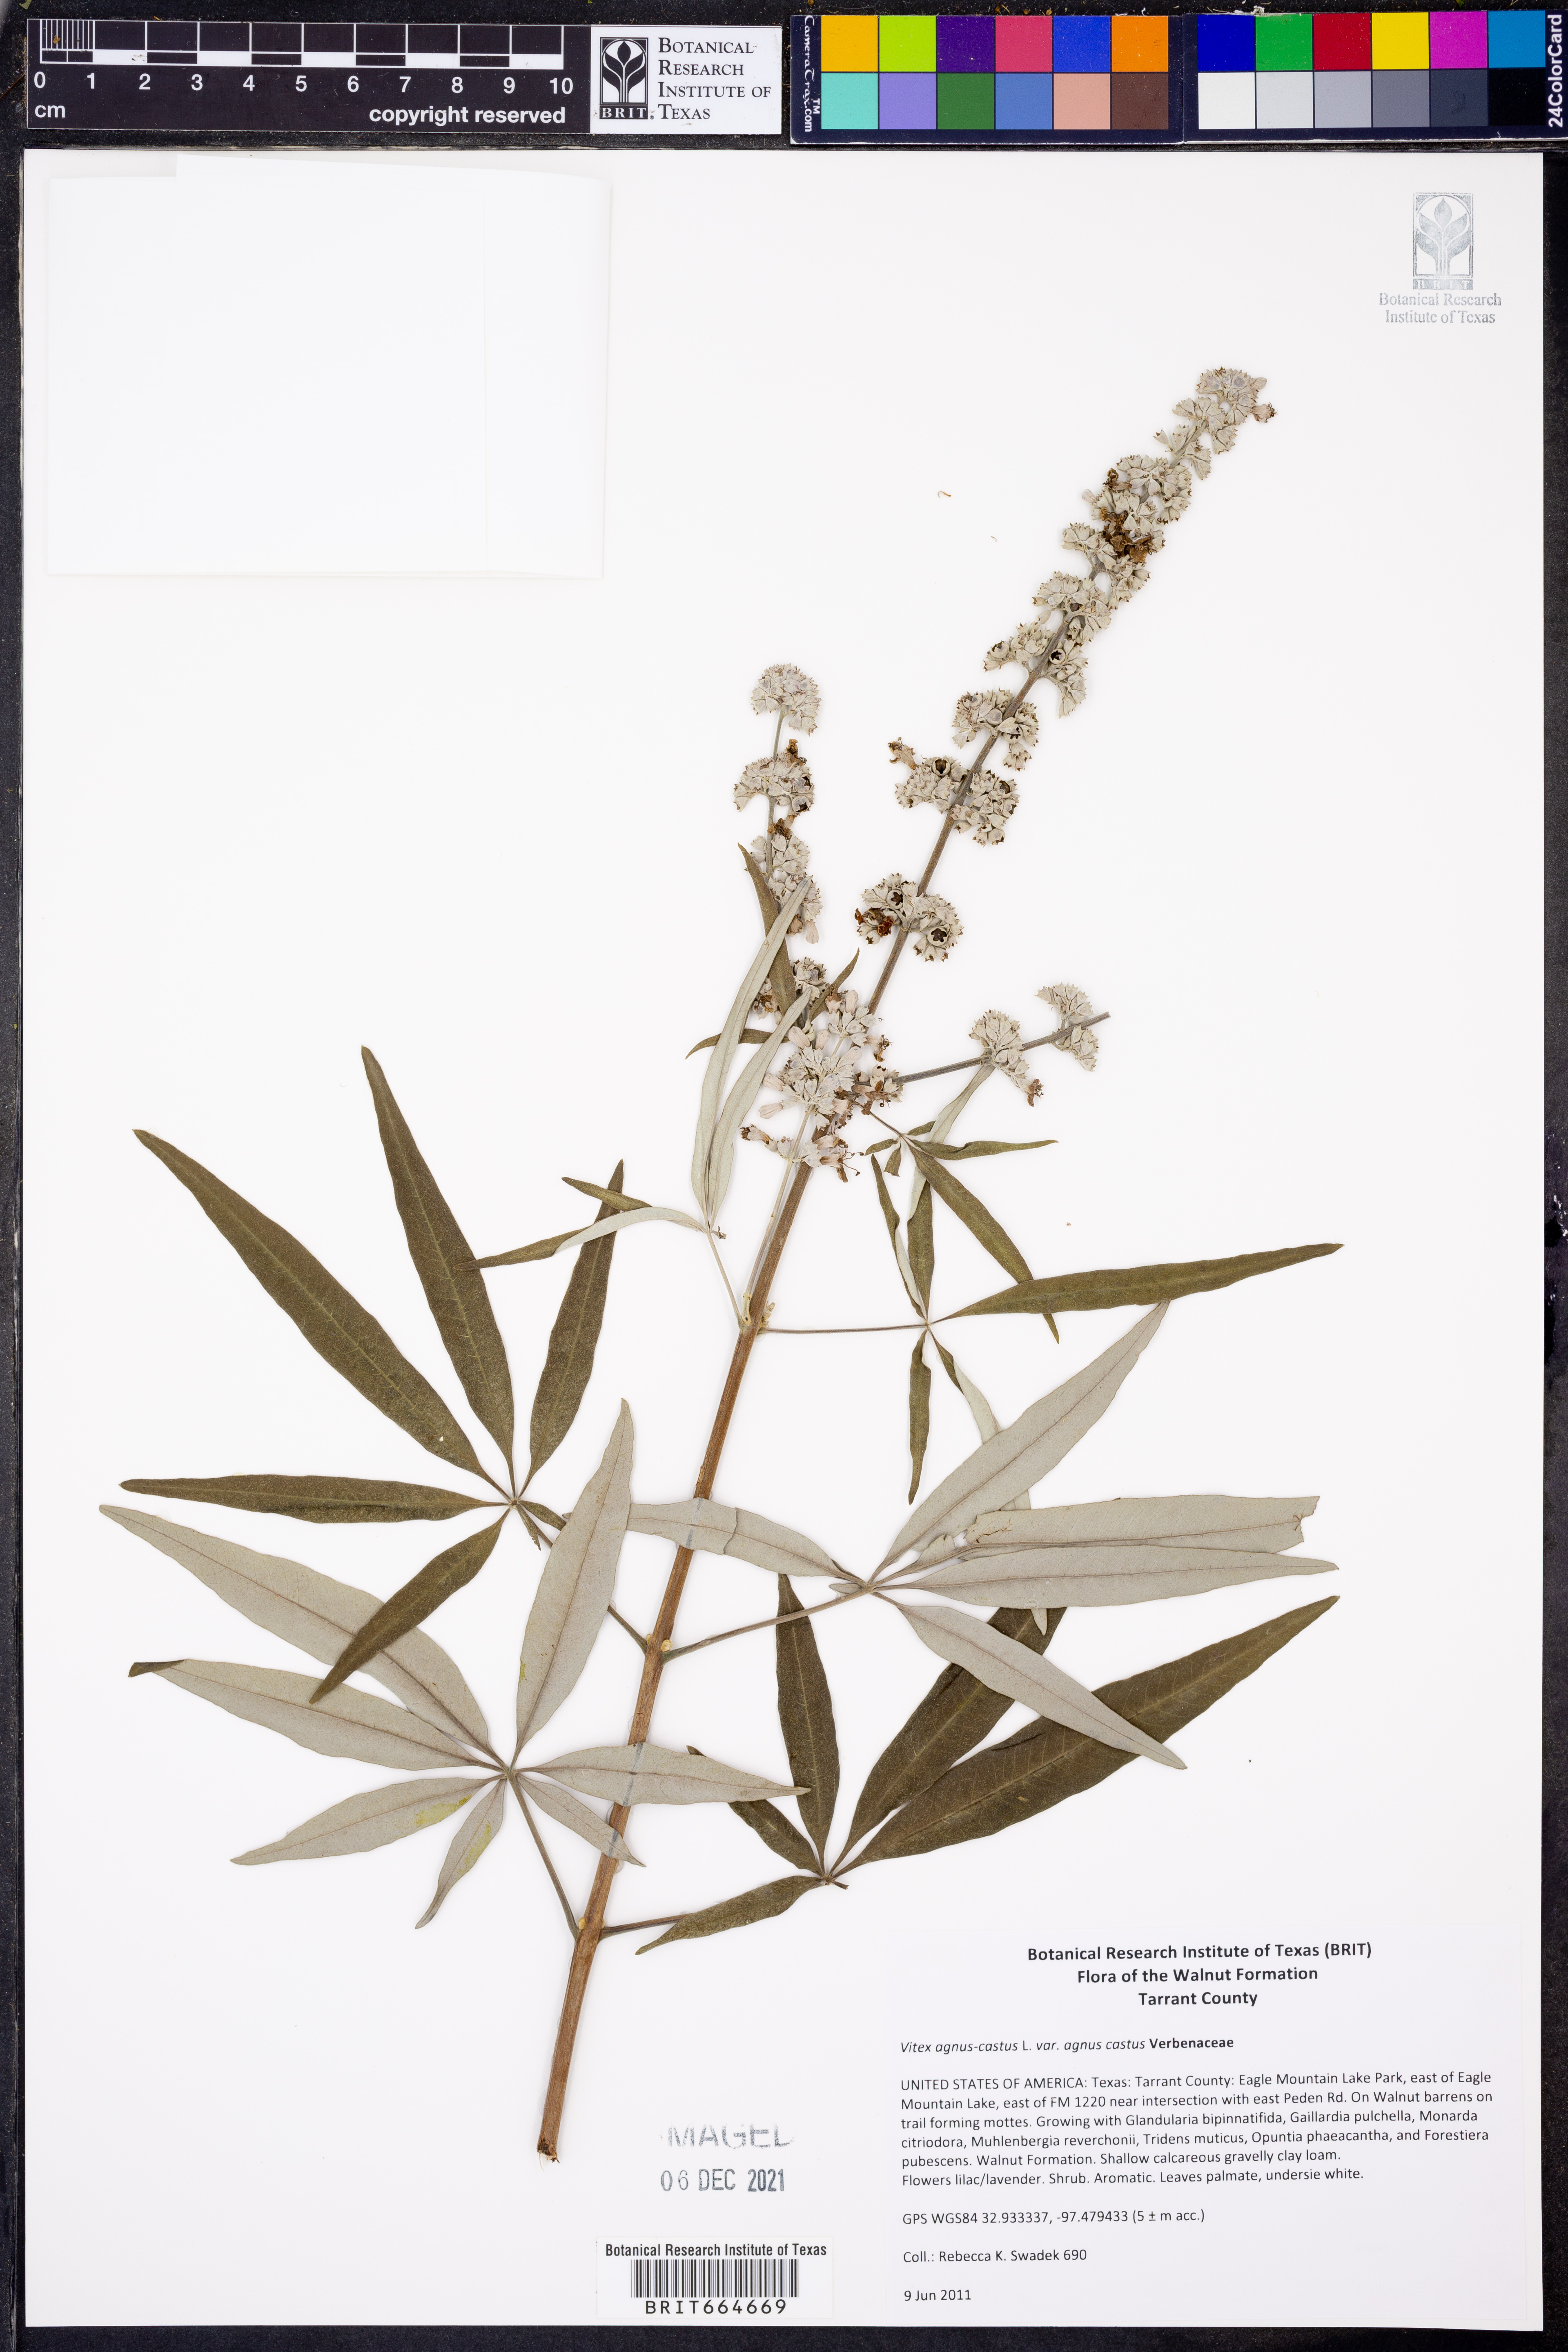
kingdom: Plantae
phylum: Tracheophyta
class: Magnoliopsida
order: Lamiales
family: Lamiaceae
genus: Vitex
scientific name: Vitex agnus-castus
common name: Chasteberry
